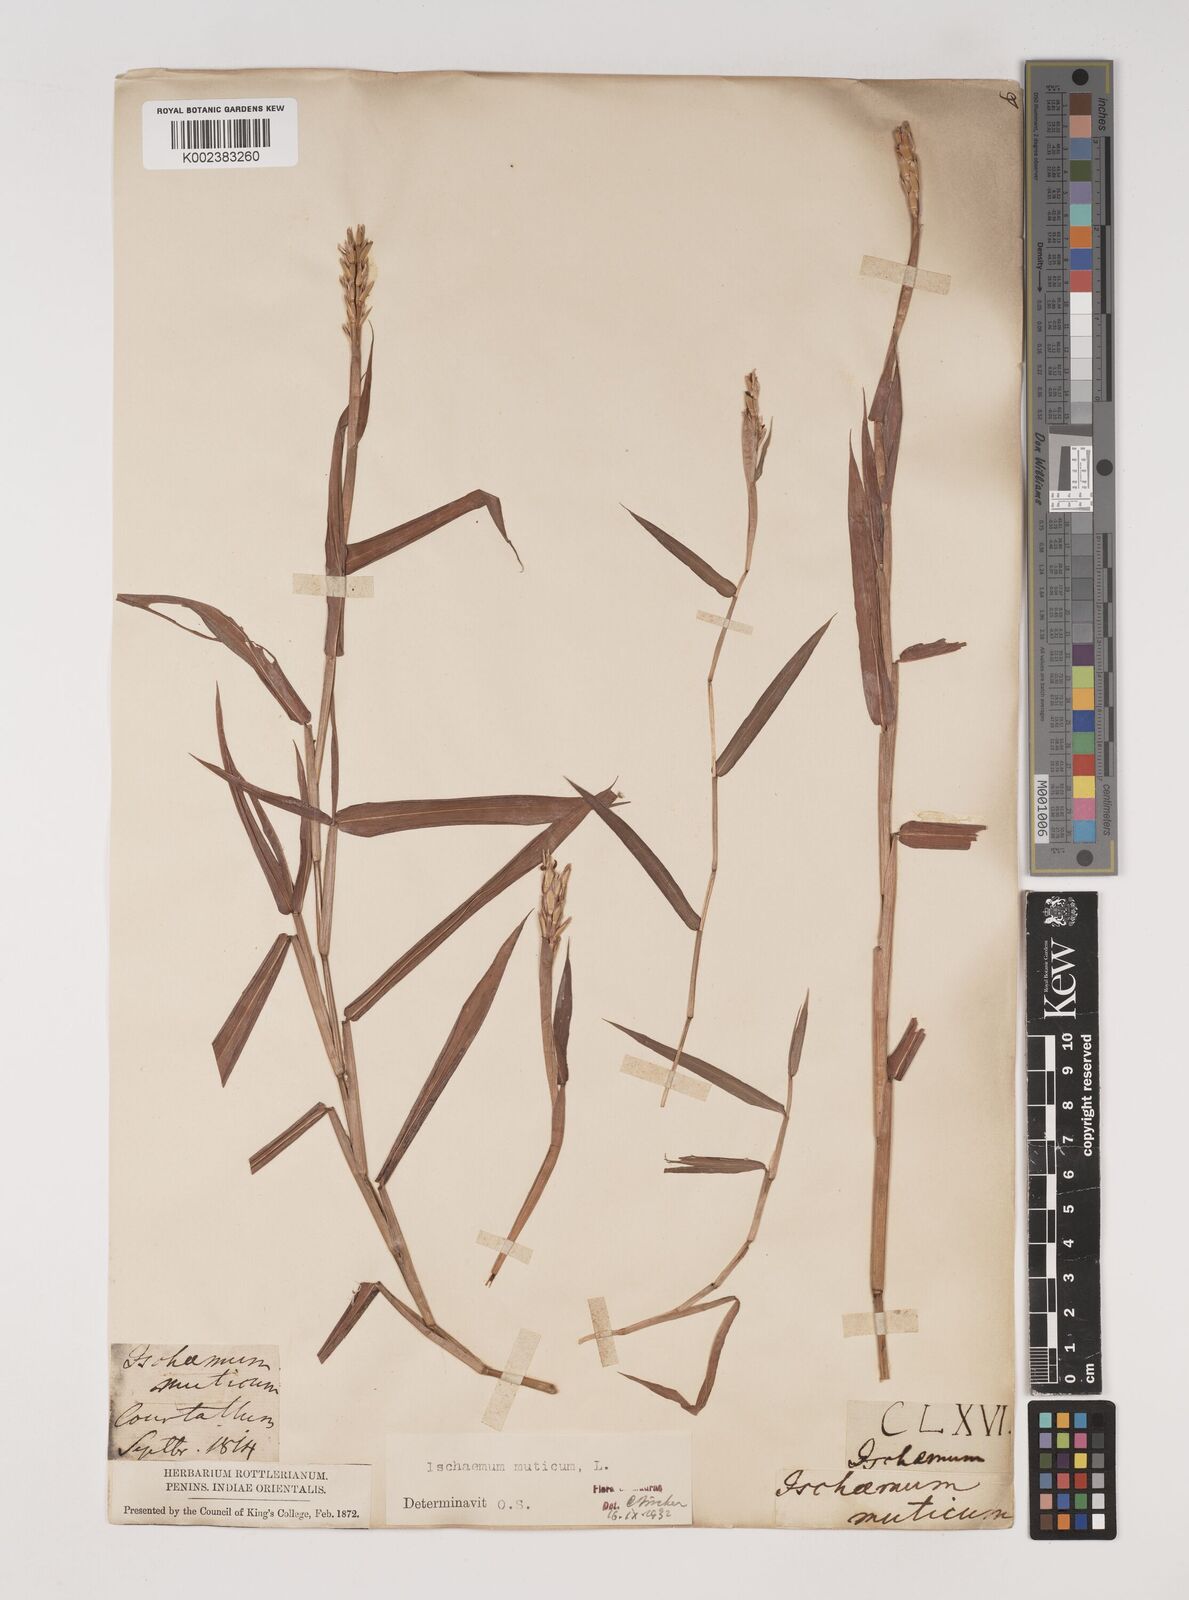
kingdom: Plantae
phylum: Tracheophyta
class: Liliopsida
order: Poales
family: Poaceae
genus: Ischaemum
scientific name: Ischaemum muticum
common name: Drought grass
